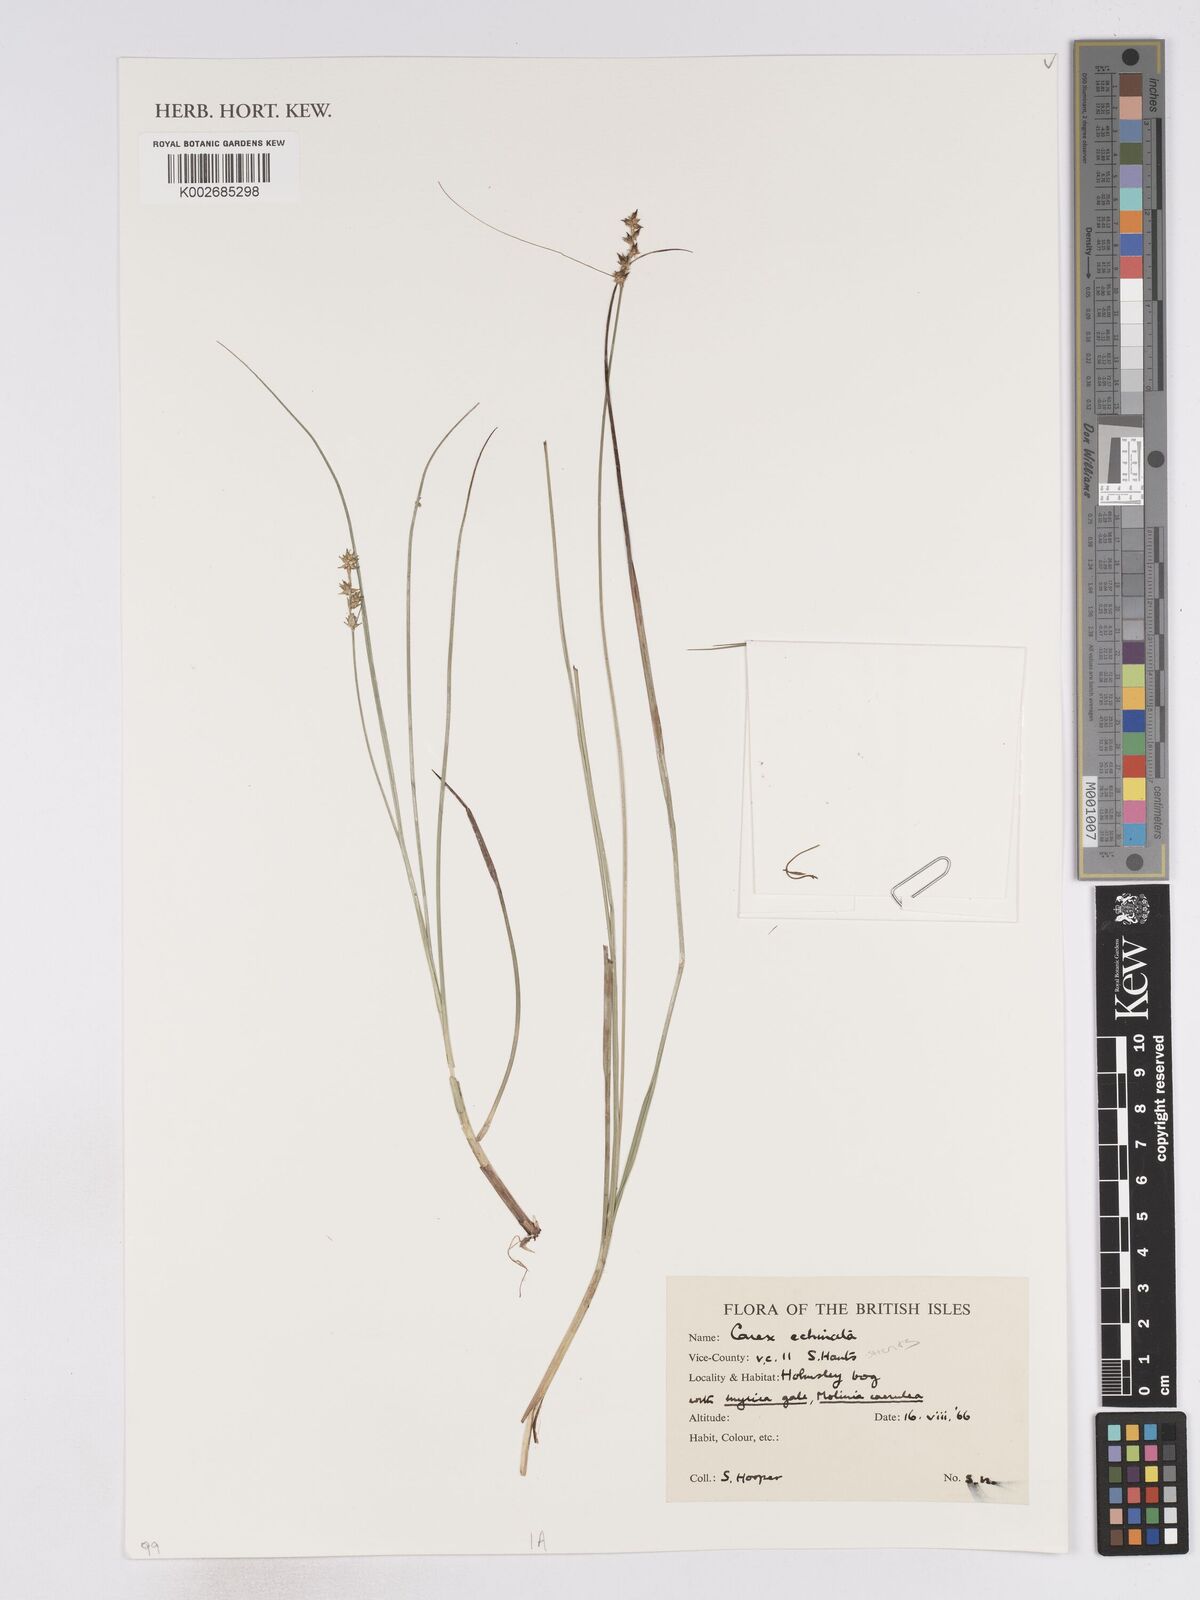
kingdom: Plantae
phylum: Tracheophyta
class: Liliopsida
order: Poales
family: Cyperaceae
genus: Carex
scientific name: Carex echinata
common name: Star sedge
